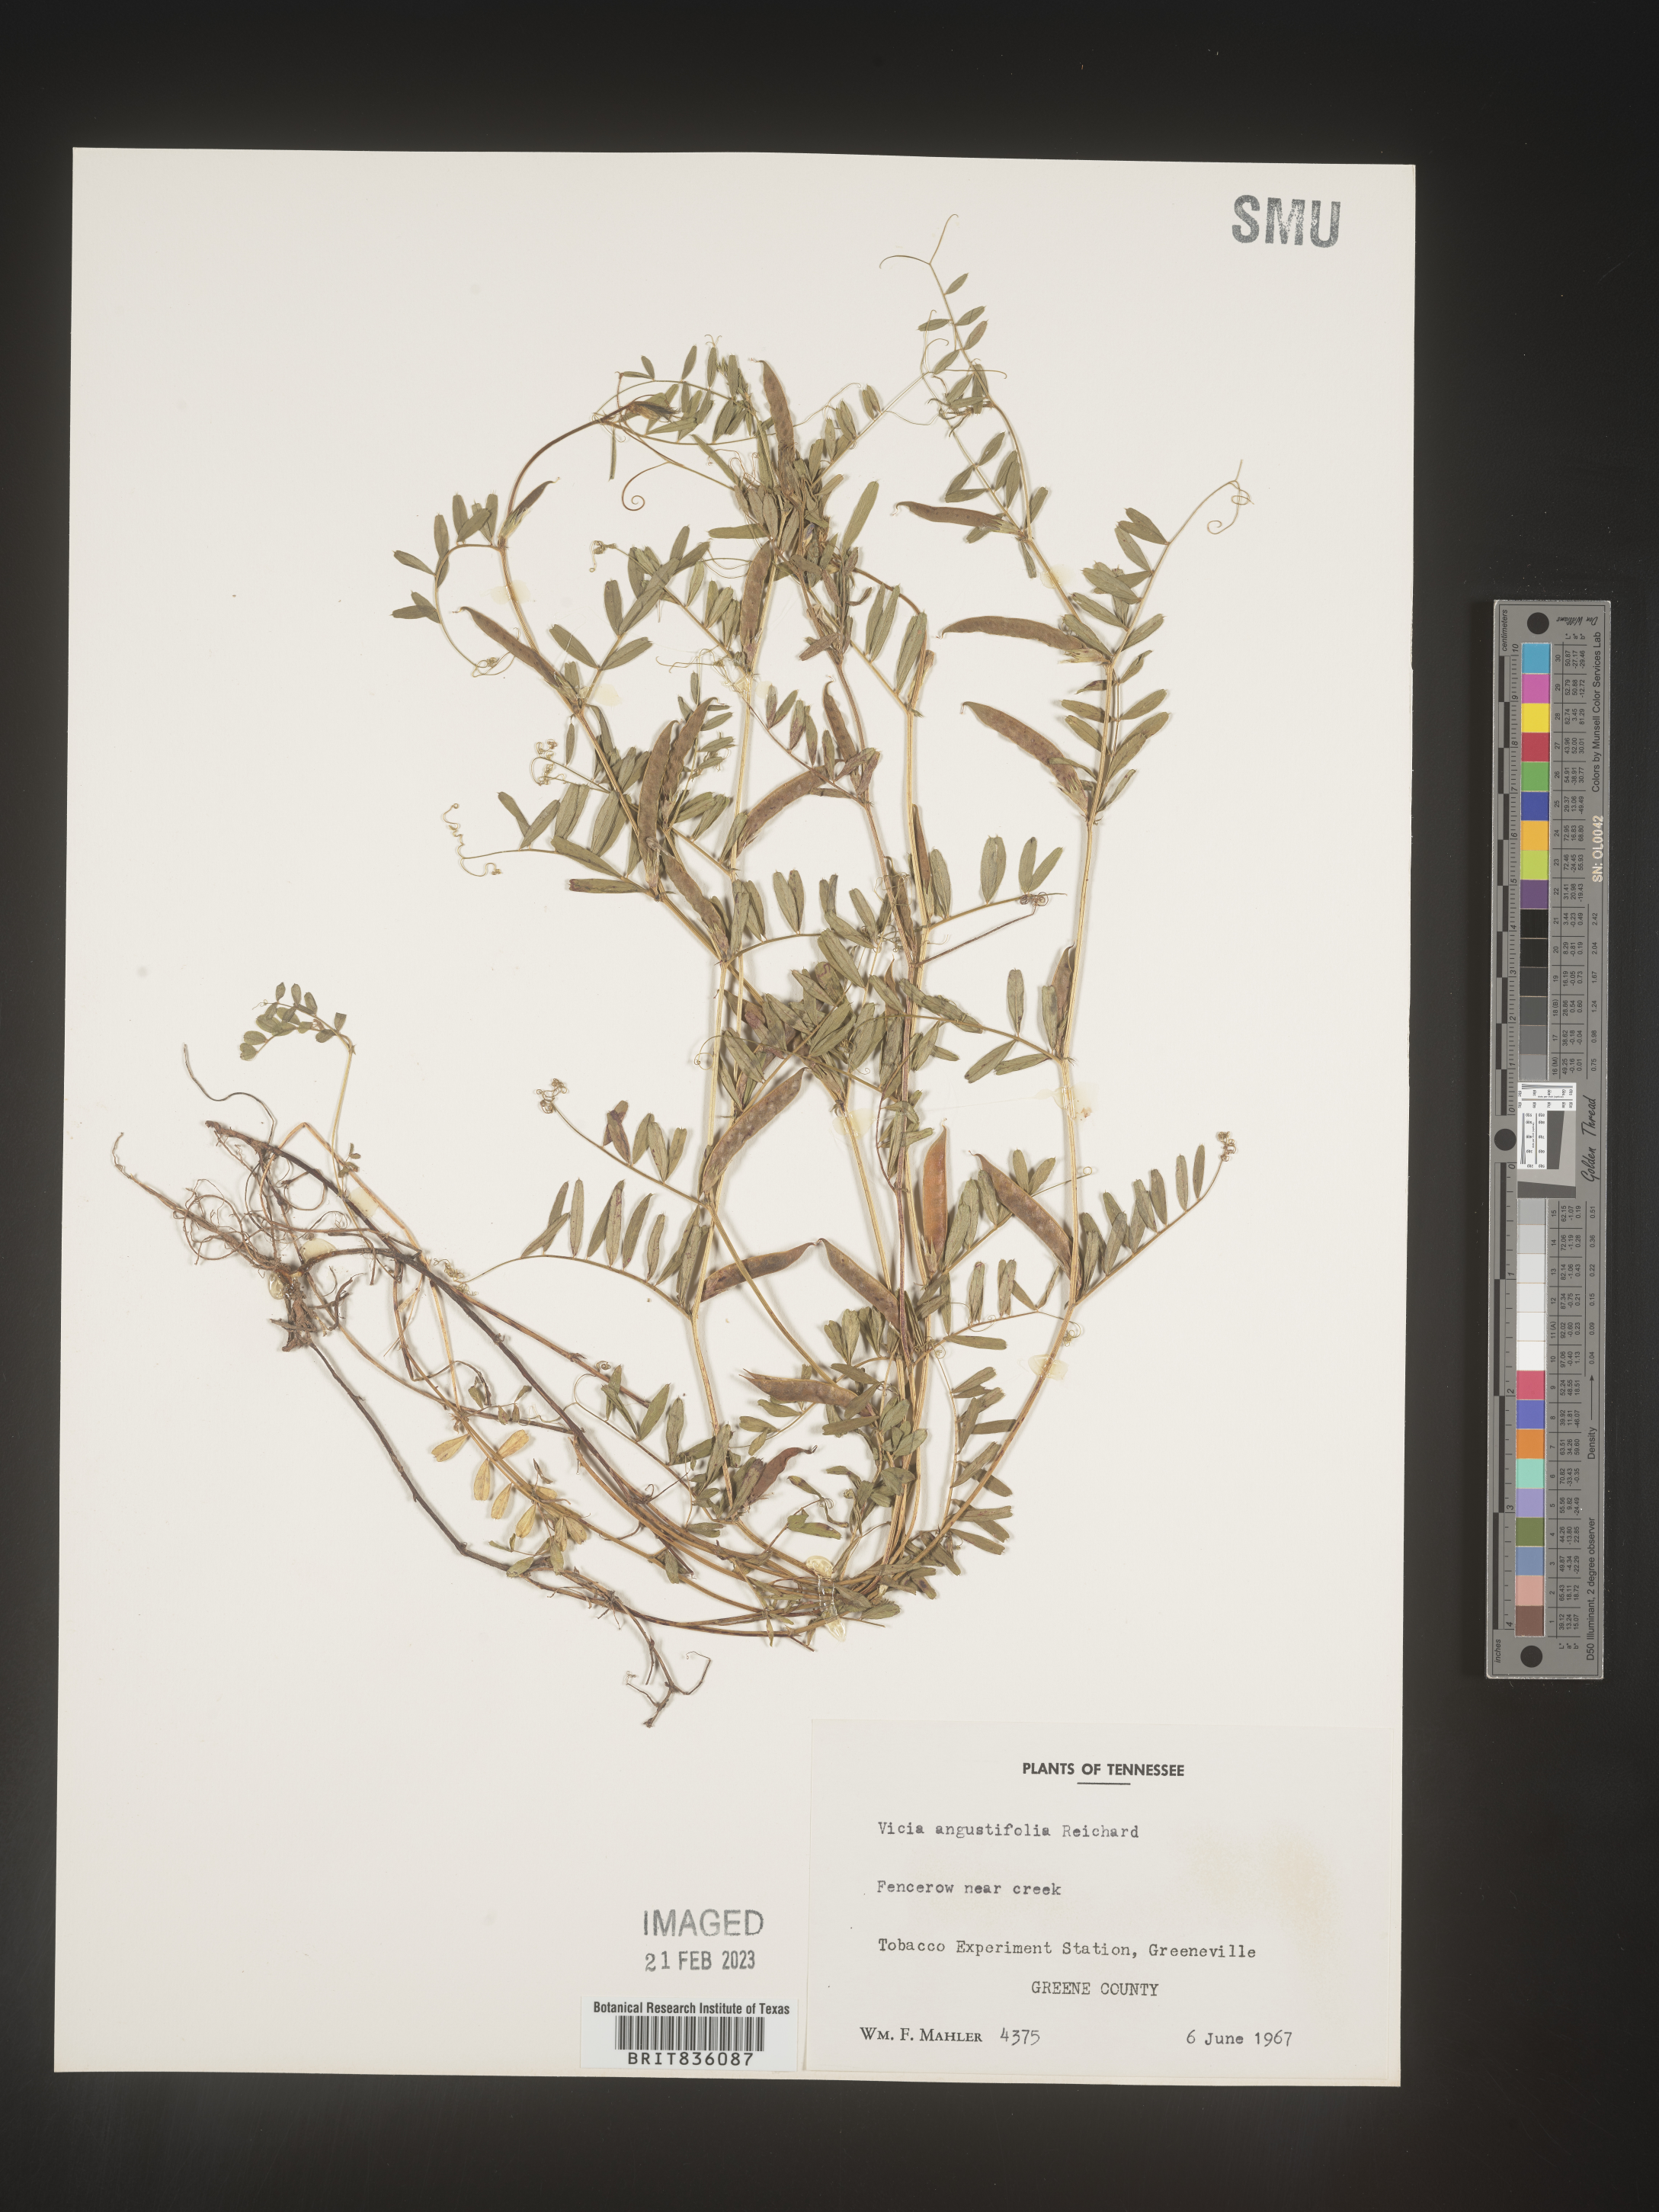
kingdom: Plantae
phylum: Tracheophyta
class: Magnoliopsida
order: Fabales
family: Fabaceae
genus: Vicia
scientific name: Vicia sativa
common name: Garden vetch
